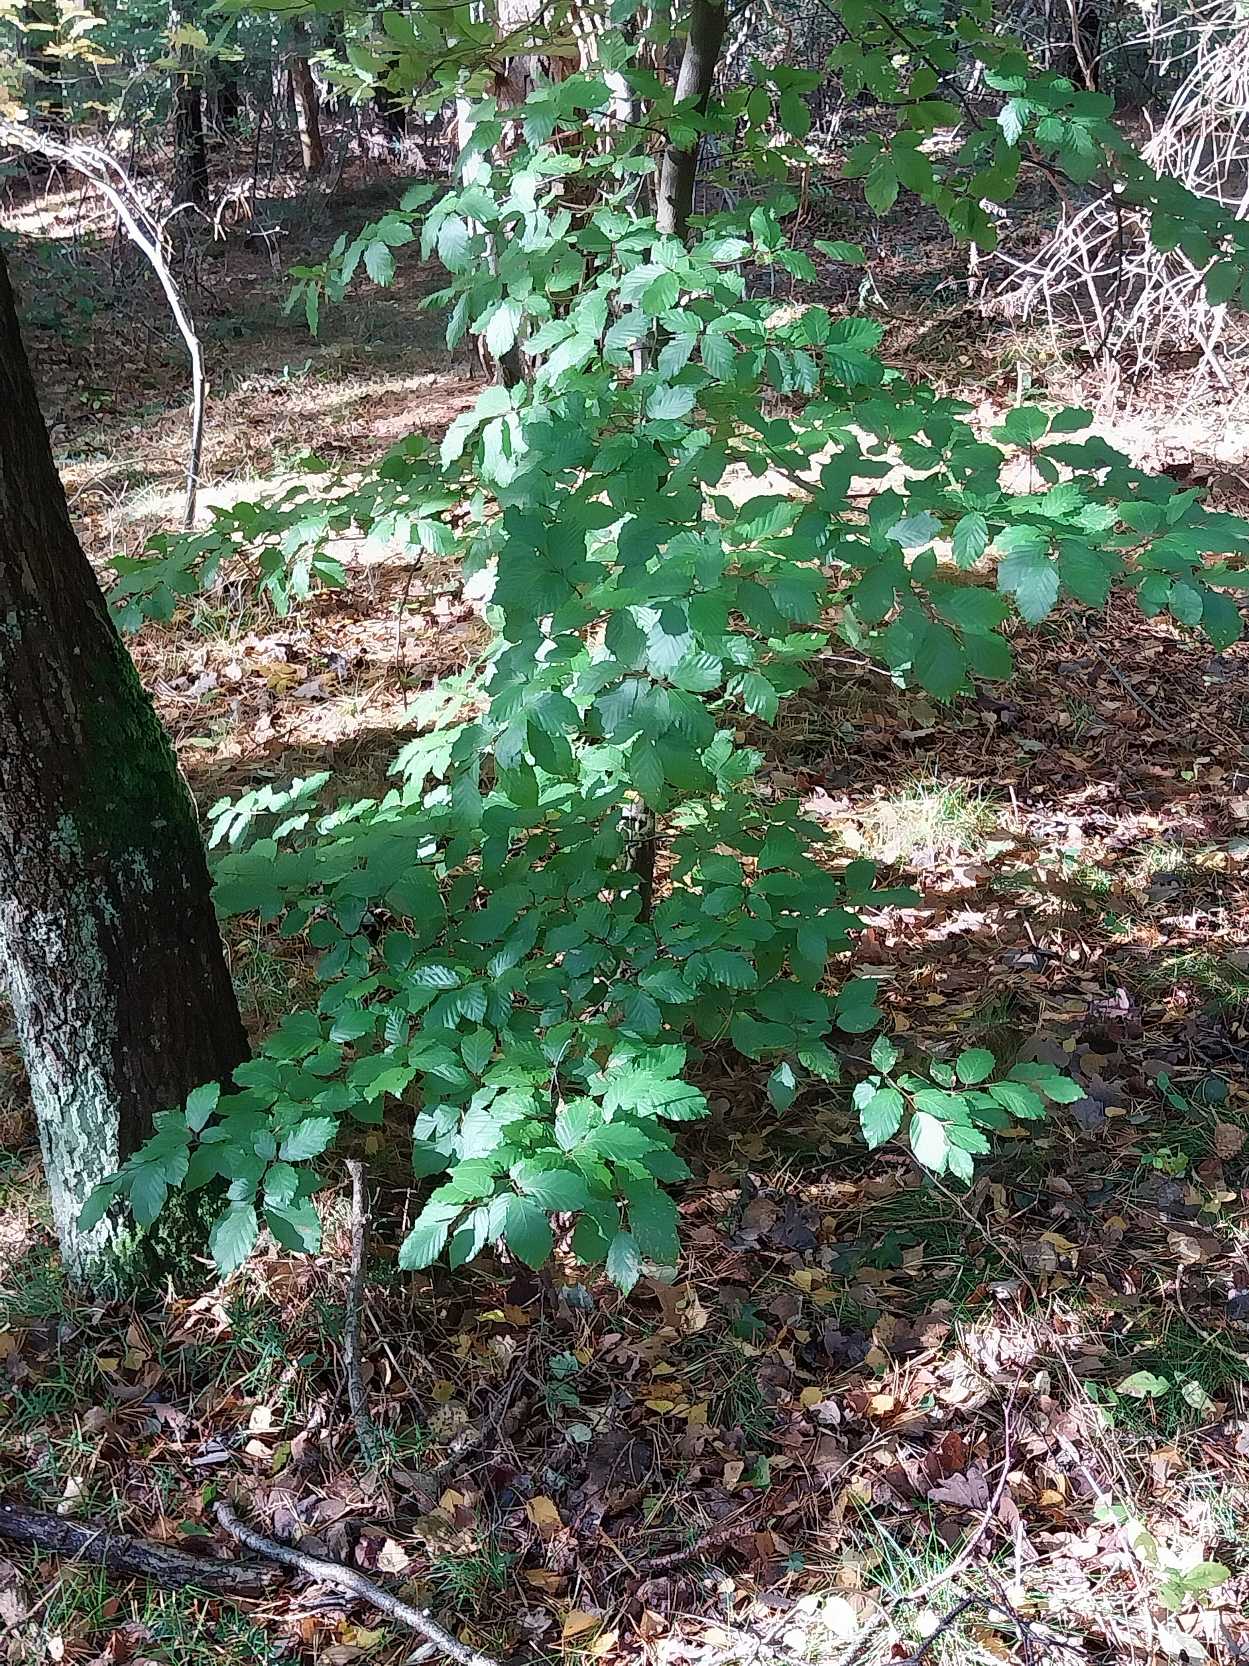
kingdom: Plantae
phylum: Tracheophyta
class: Magnoliopsida
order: Fagales
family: Fagaceae
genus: Fagus
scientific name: Fagus sylvatica
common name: Bøg
